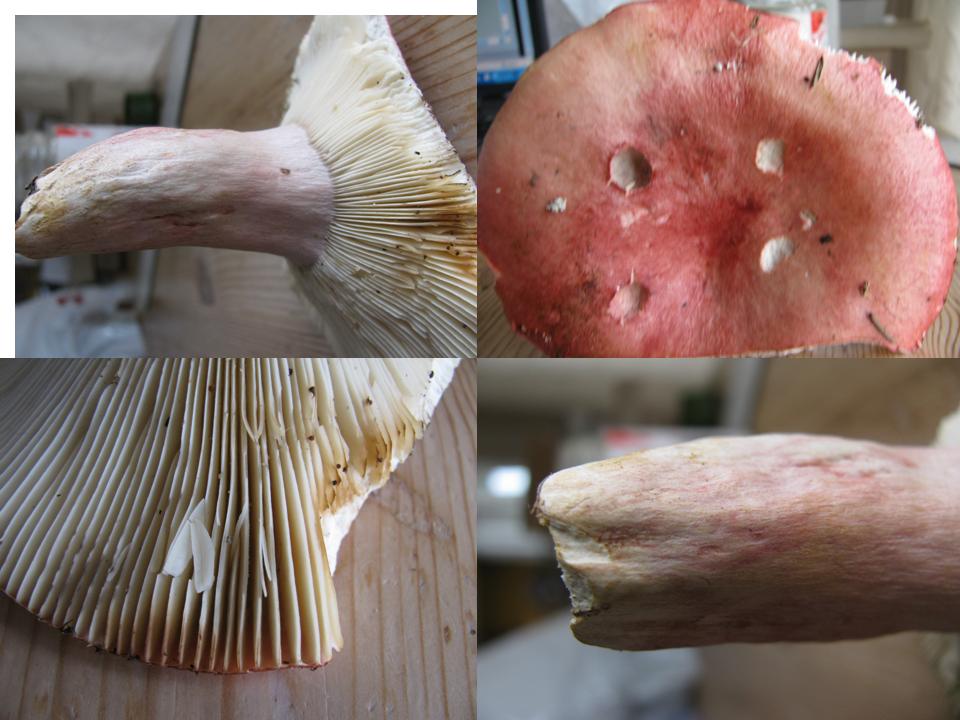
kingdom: Fungi
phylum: Basidiomycota
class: Agaricomycetes
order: Russulales
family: Russulaceae
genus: Russula
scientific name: Russula sanguinea
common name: blodrød skørhat
